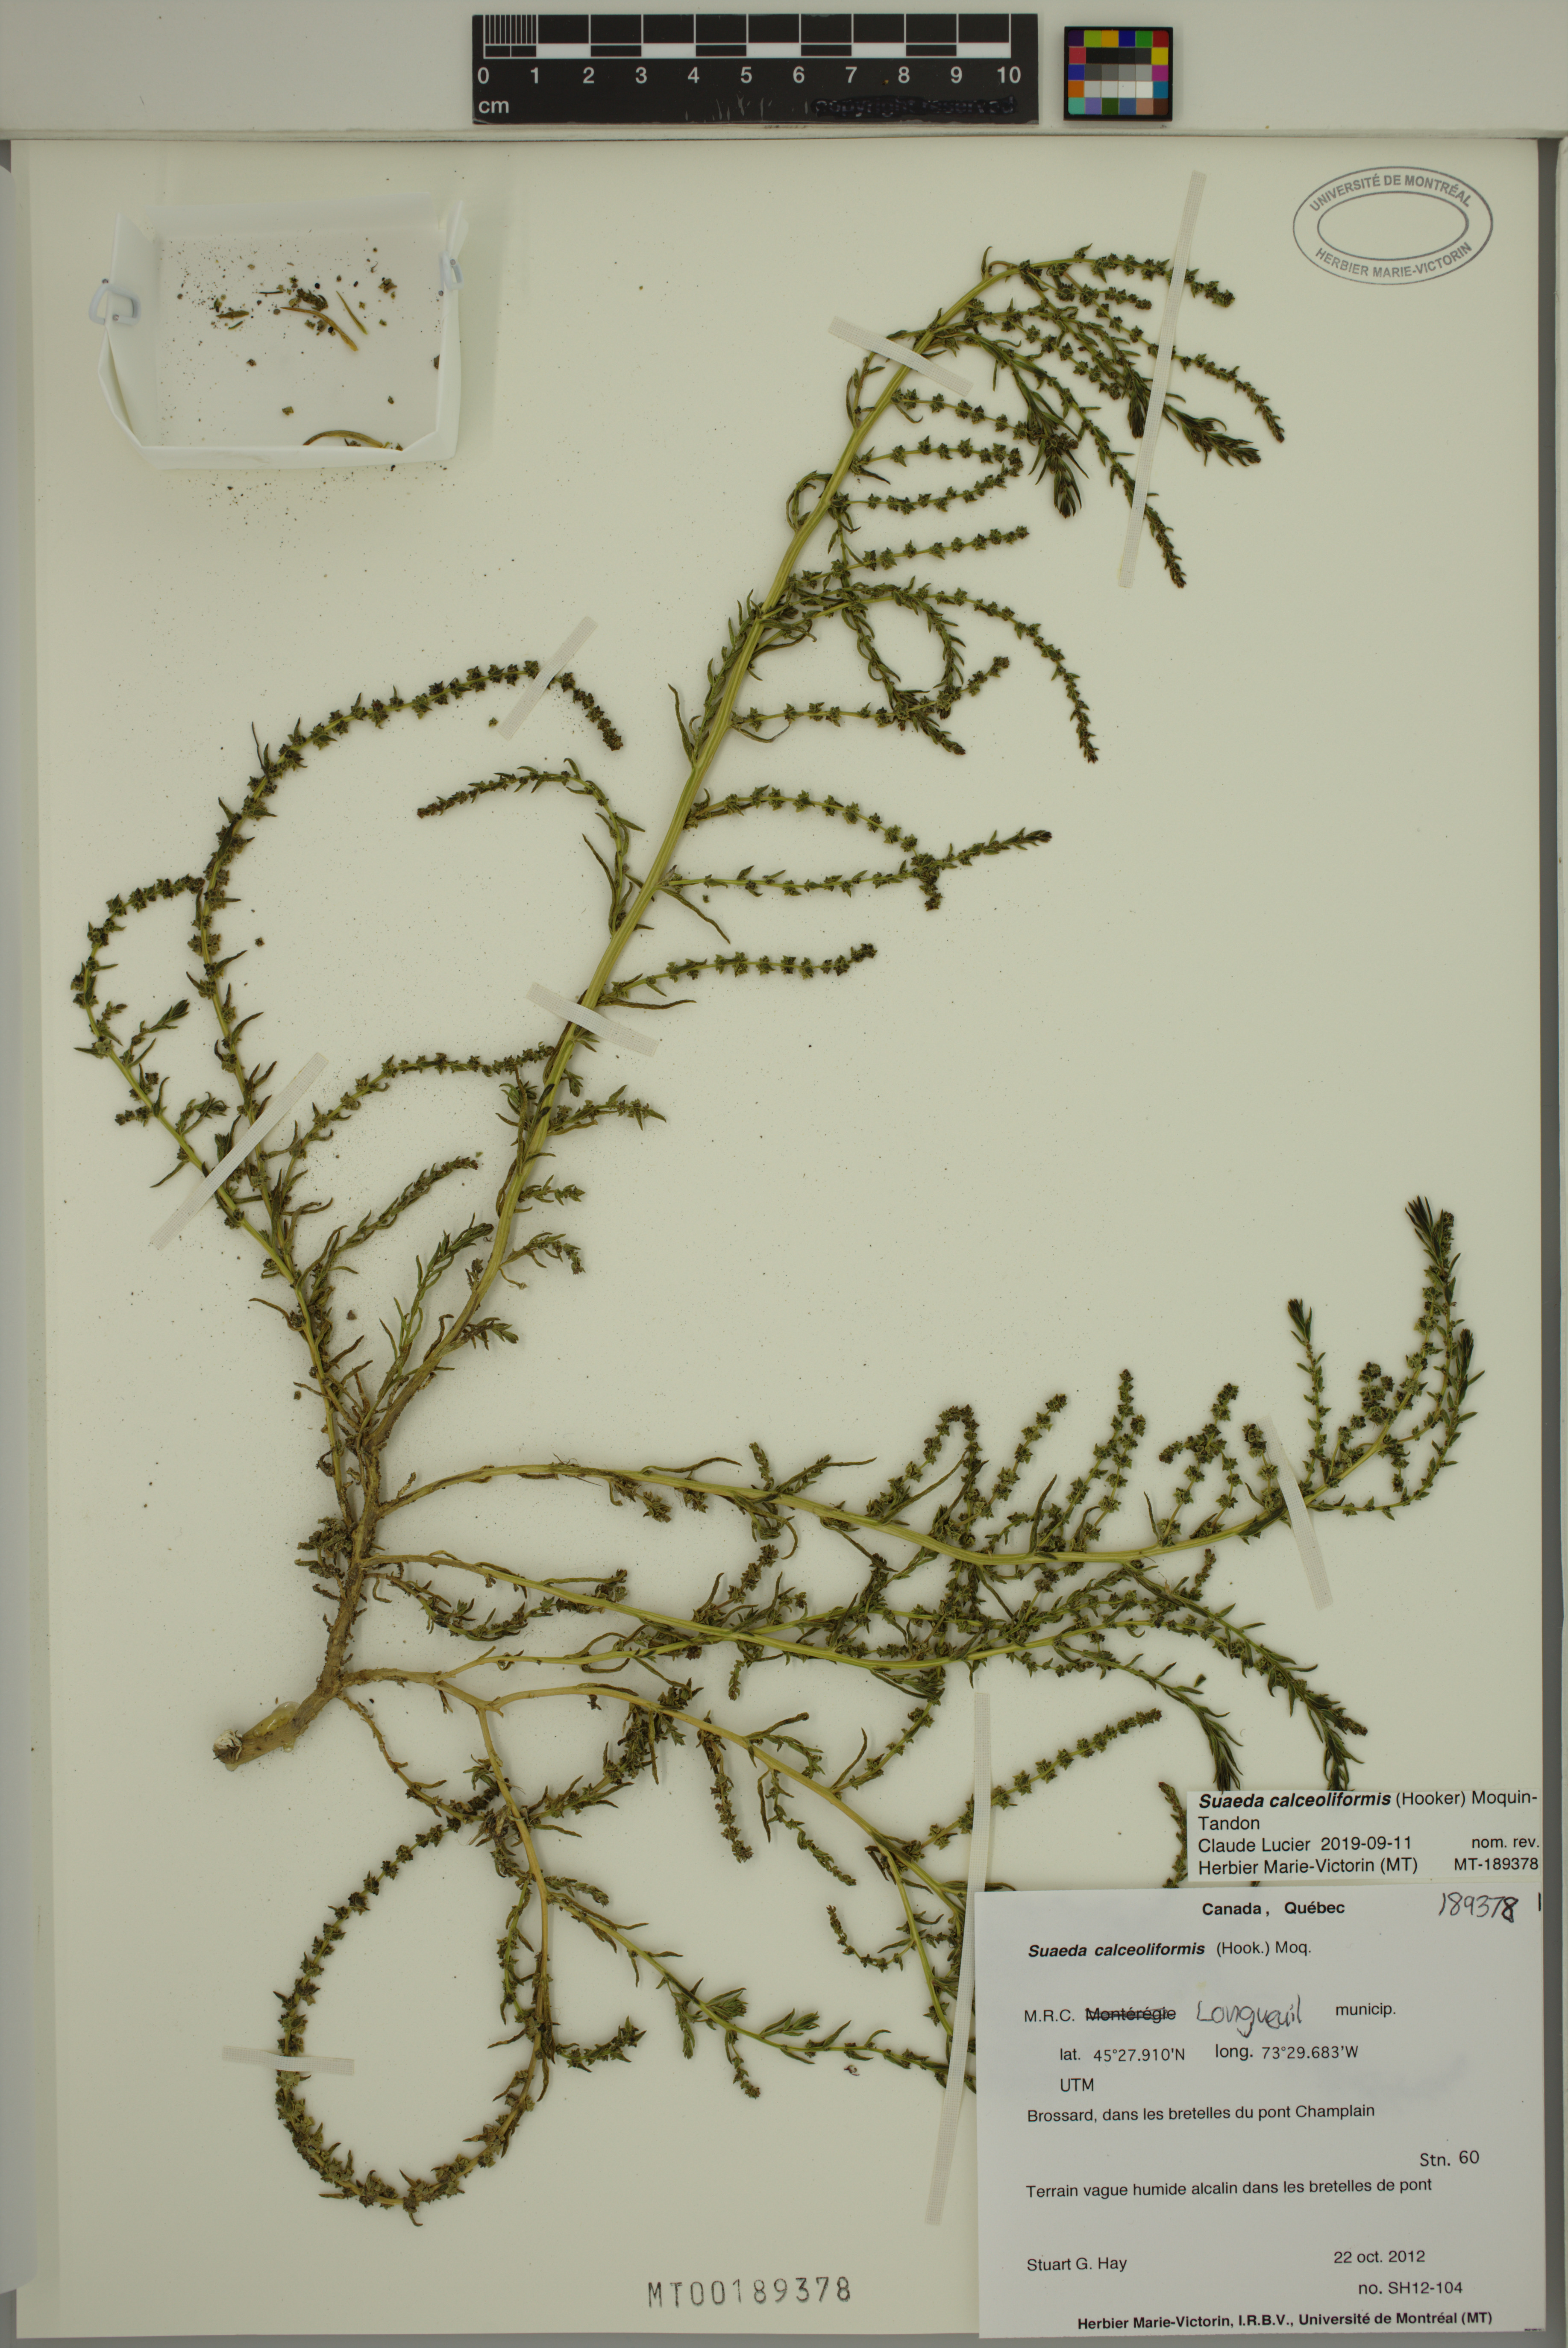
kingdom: Plantae
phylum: Tracheophyta
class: Magnoliopsida
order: Caryophyllales
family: Amaranthaceae
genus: Suaeda
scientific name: Suaeda calceoliformis
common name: Pursh's seepweed
